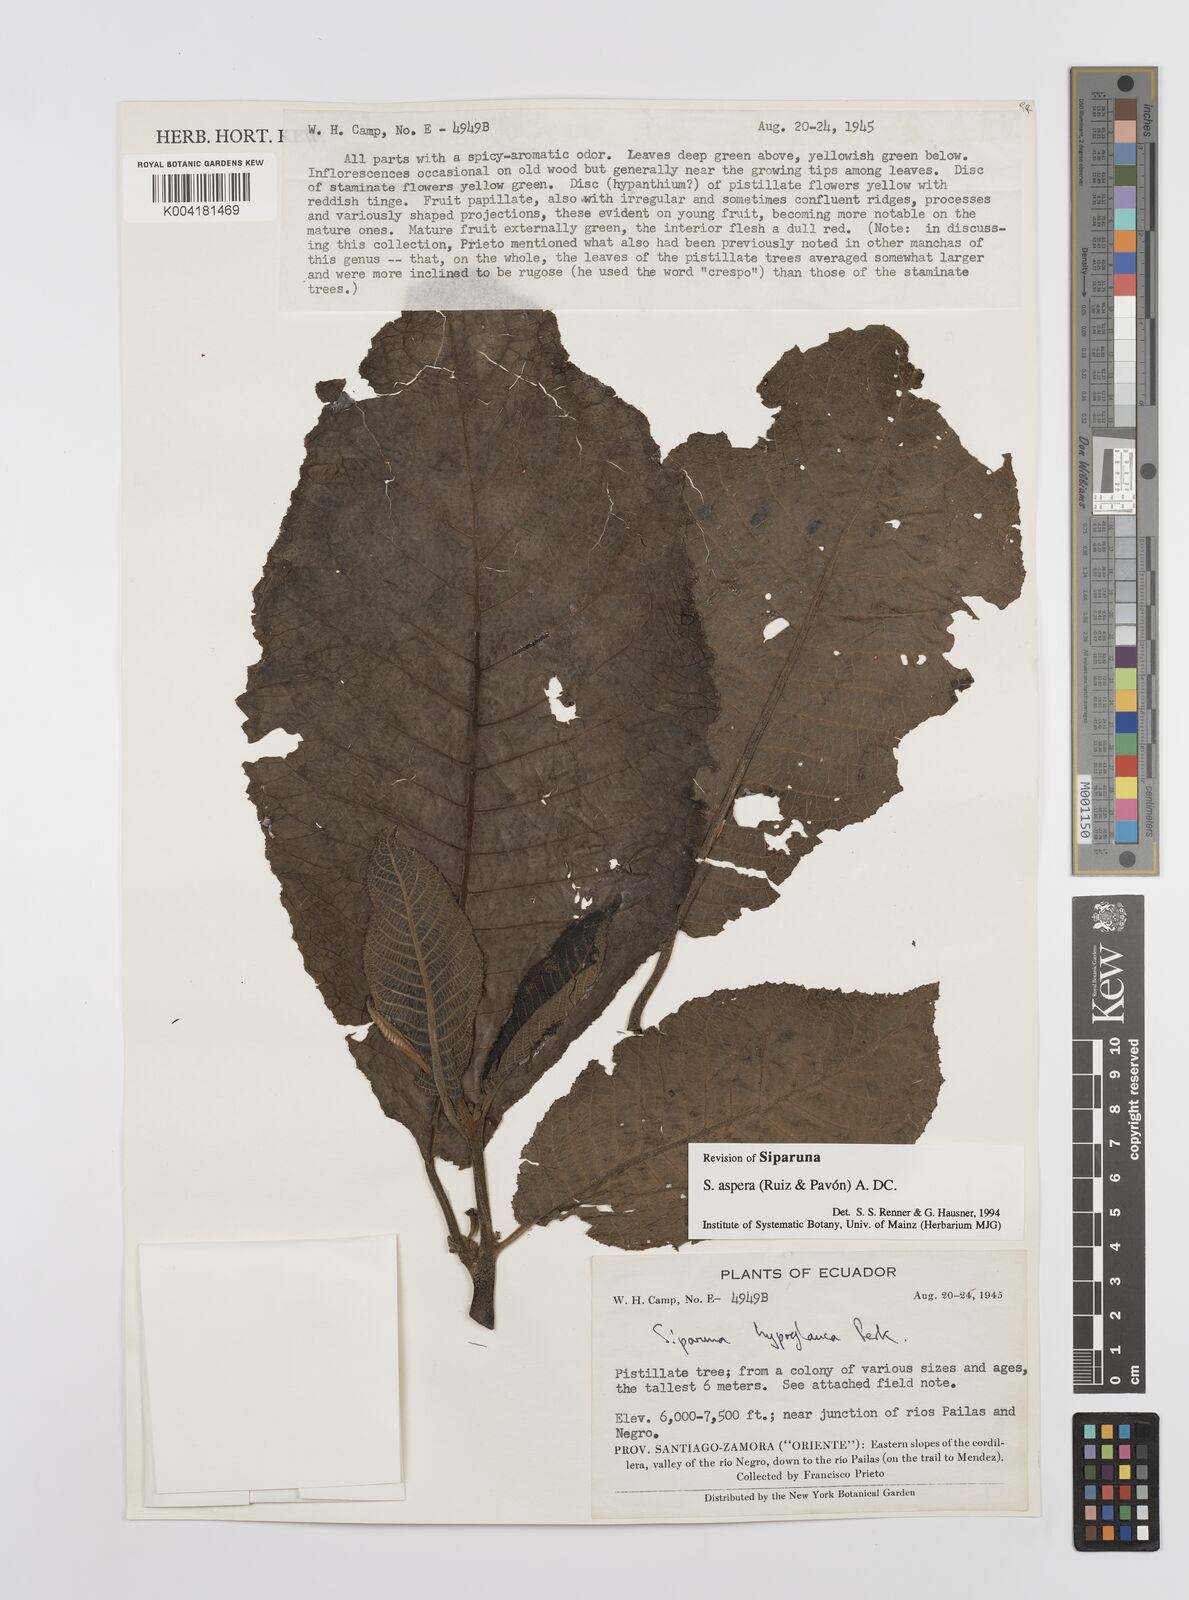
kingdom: Plantae
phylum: Tracheophyta
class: Magnoliopsida
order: Laurales
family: Siparunaceae
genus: Siparuna
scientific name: Siparuna aspera
